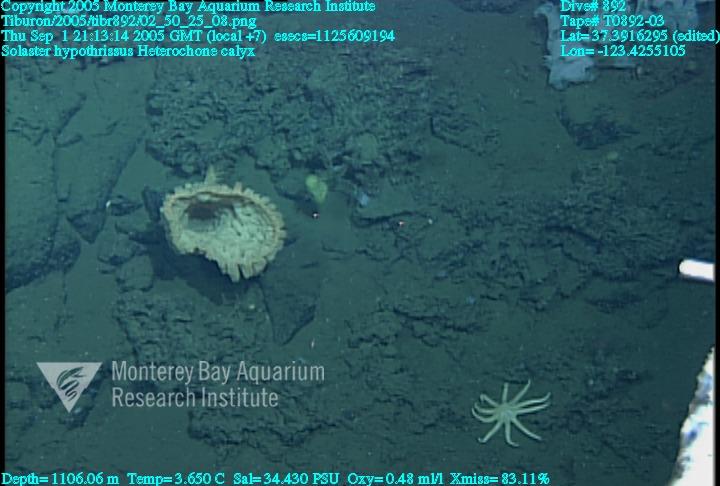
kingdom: Animalia
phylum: Porifera
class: Hexactinellida
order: Sceptrulophora
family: Aphrocallistidae
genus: Heterochone
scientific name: Heterochone calyx
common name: Fingered goblet glass sponge
